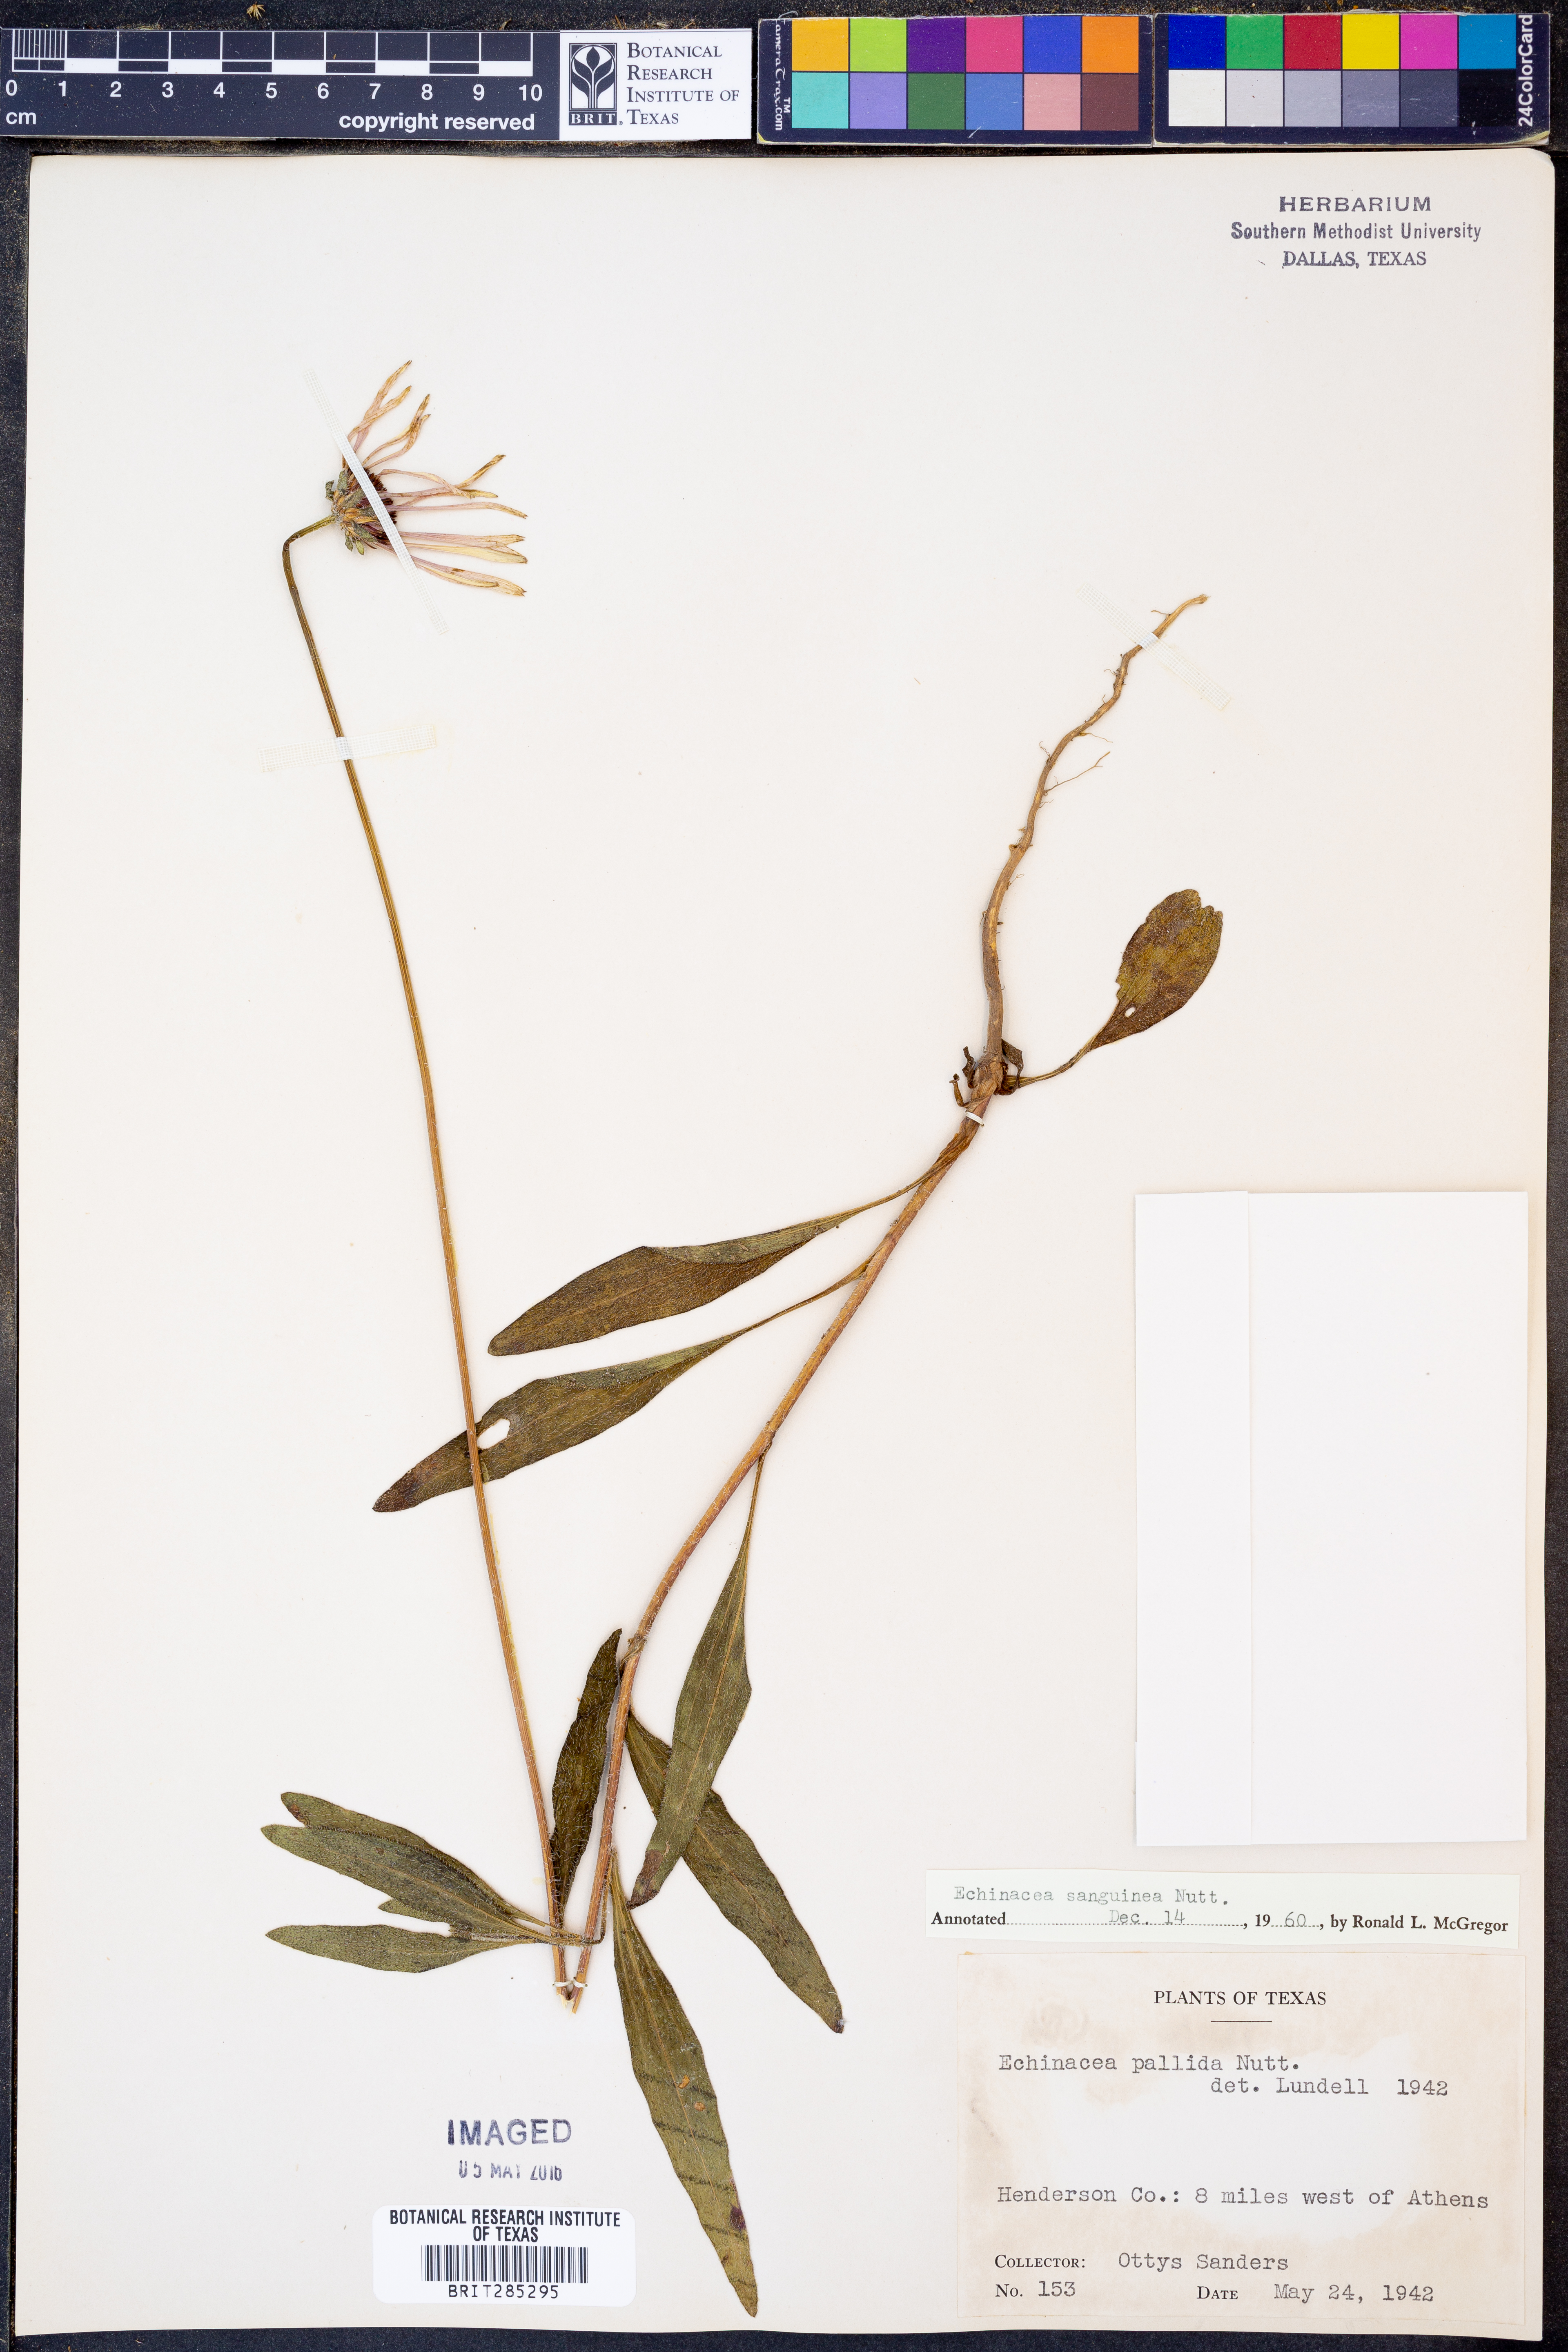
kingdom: Plantae
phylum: Tracheophyta
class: Magnoliopsida
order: Asterales
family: Asteraceae
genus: Echinacea
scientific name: Echinacea sanguinea
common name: Sanguine purple-coneflower
